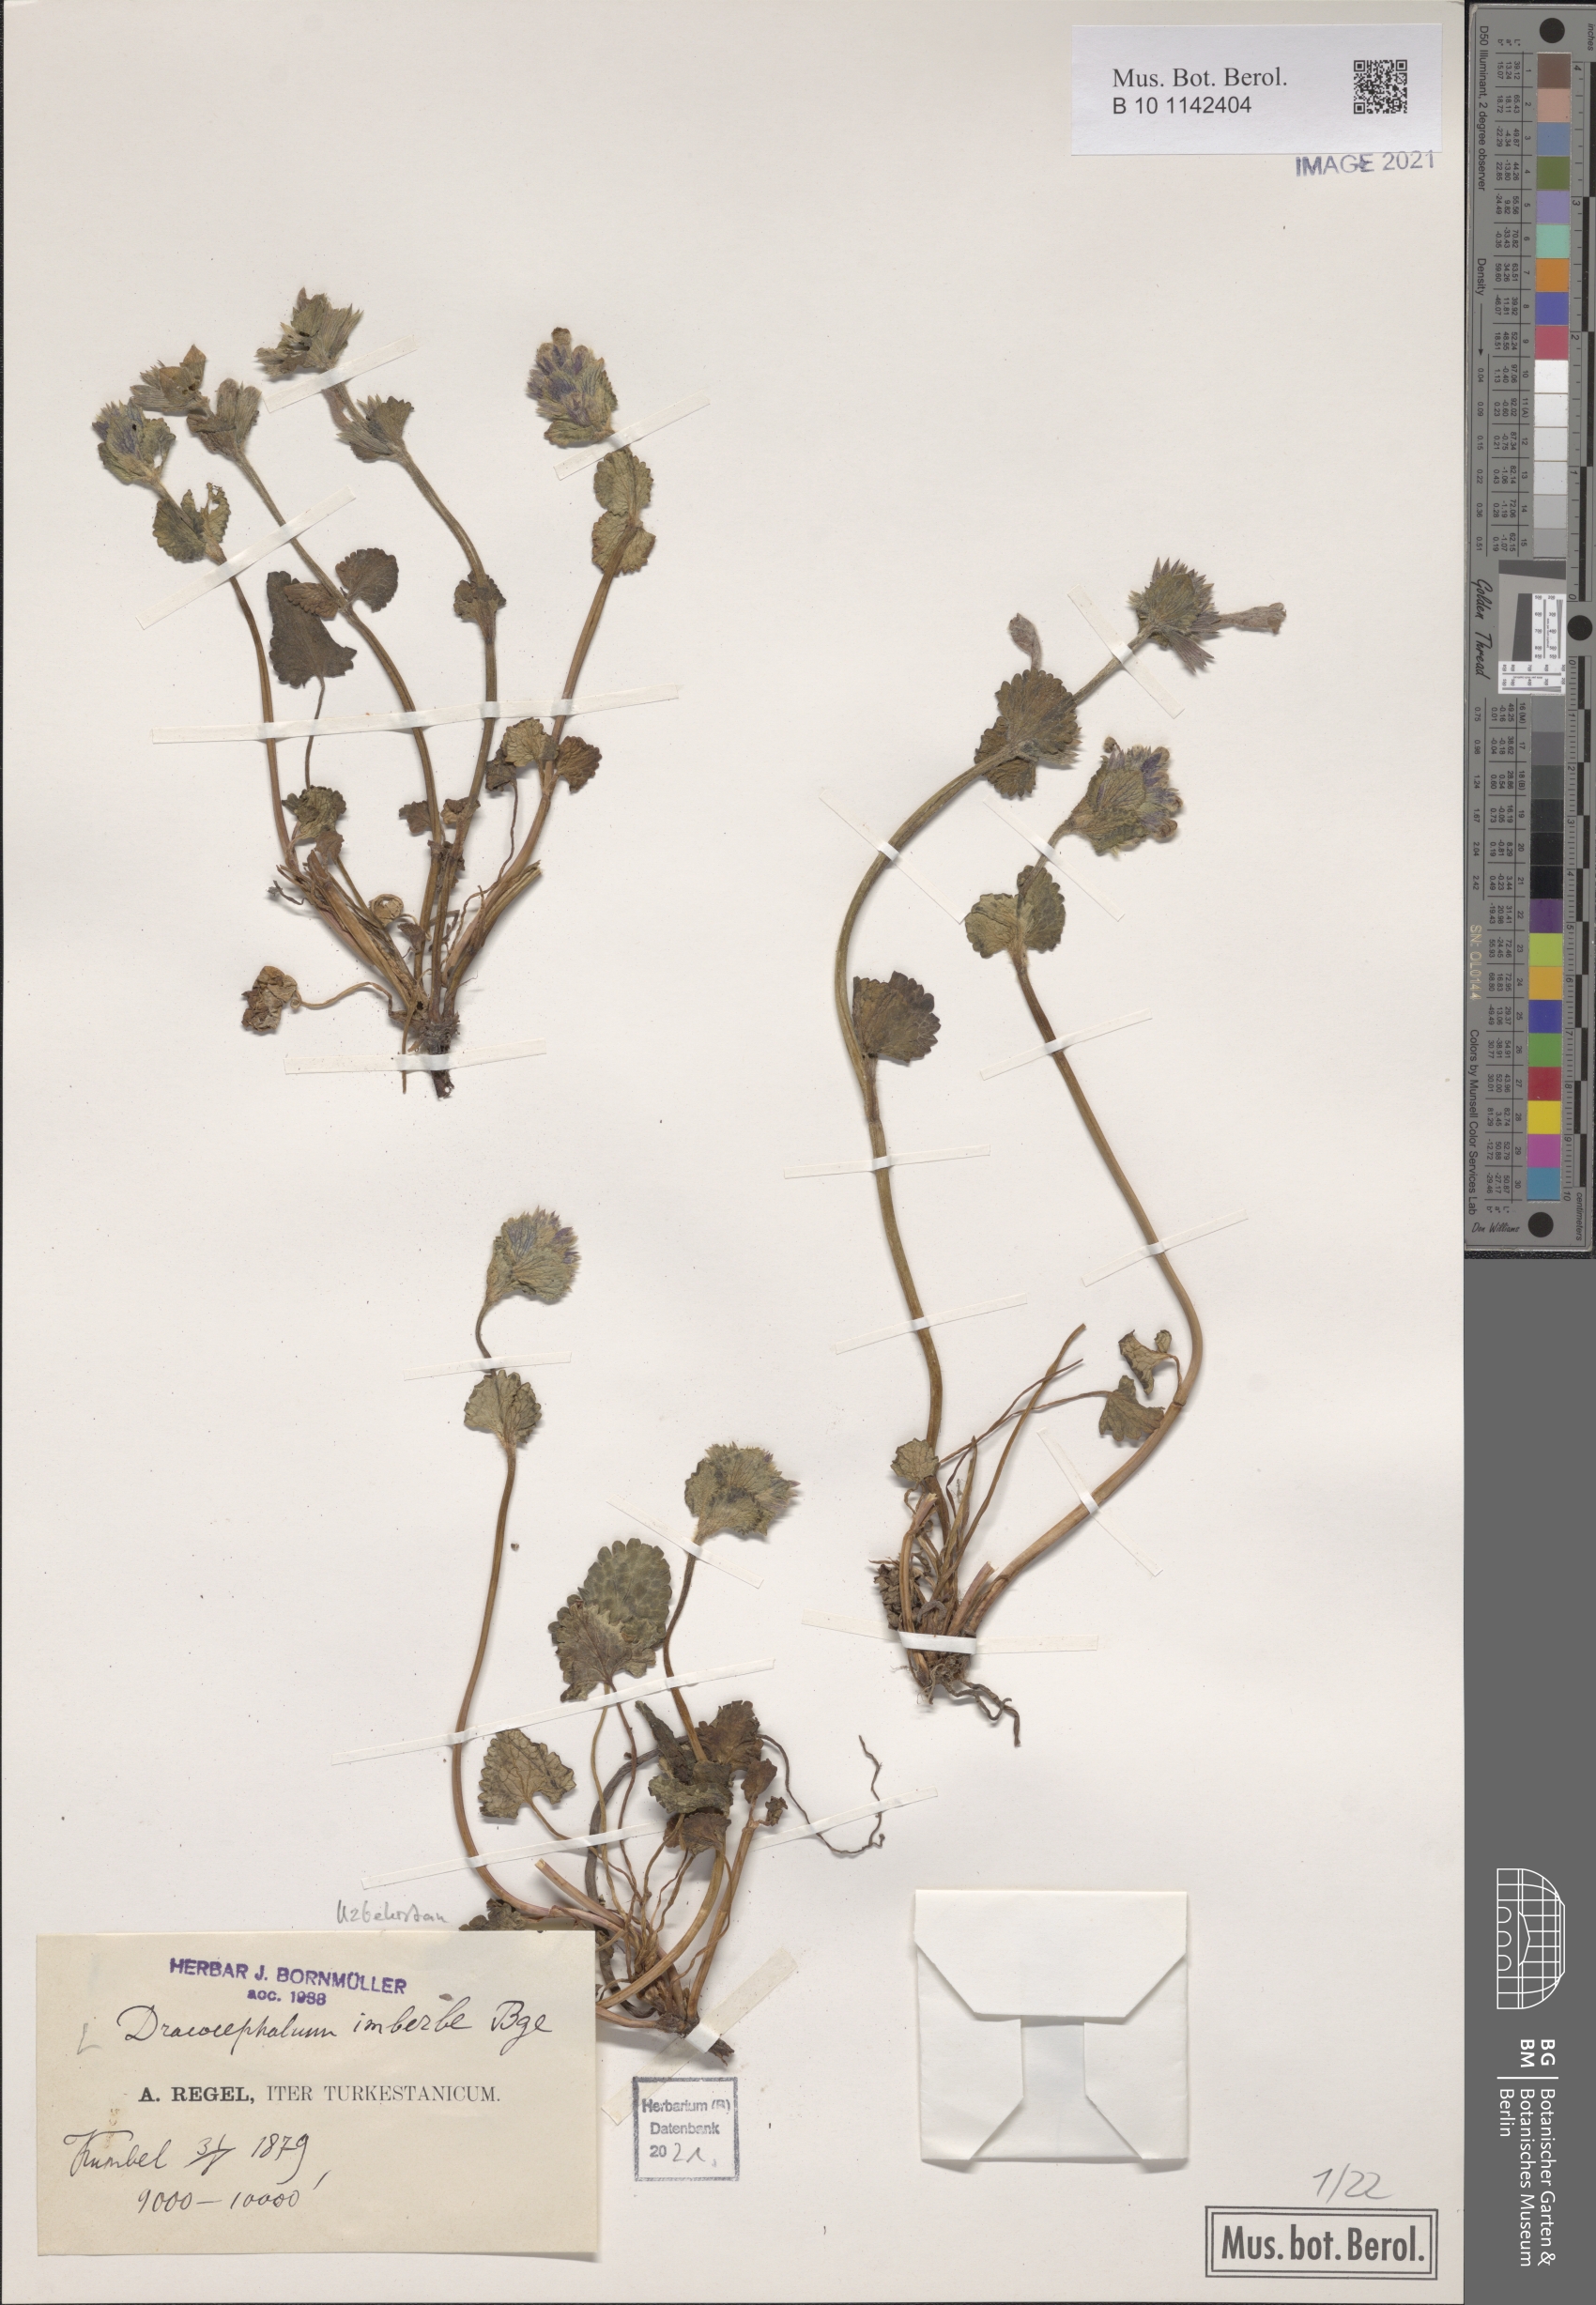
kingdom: Plantae
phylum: Tracheophyta
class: Magnoliopsida
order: Lamiales
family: Lamiaceae
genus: Dracocephalum
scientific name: Dracocephalum imberbe
